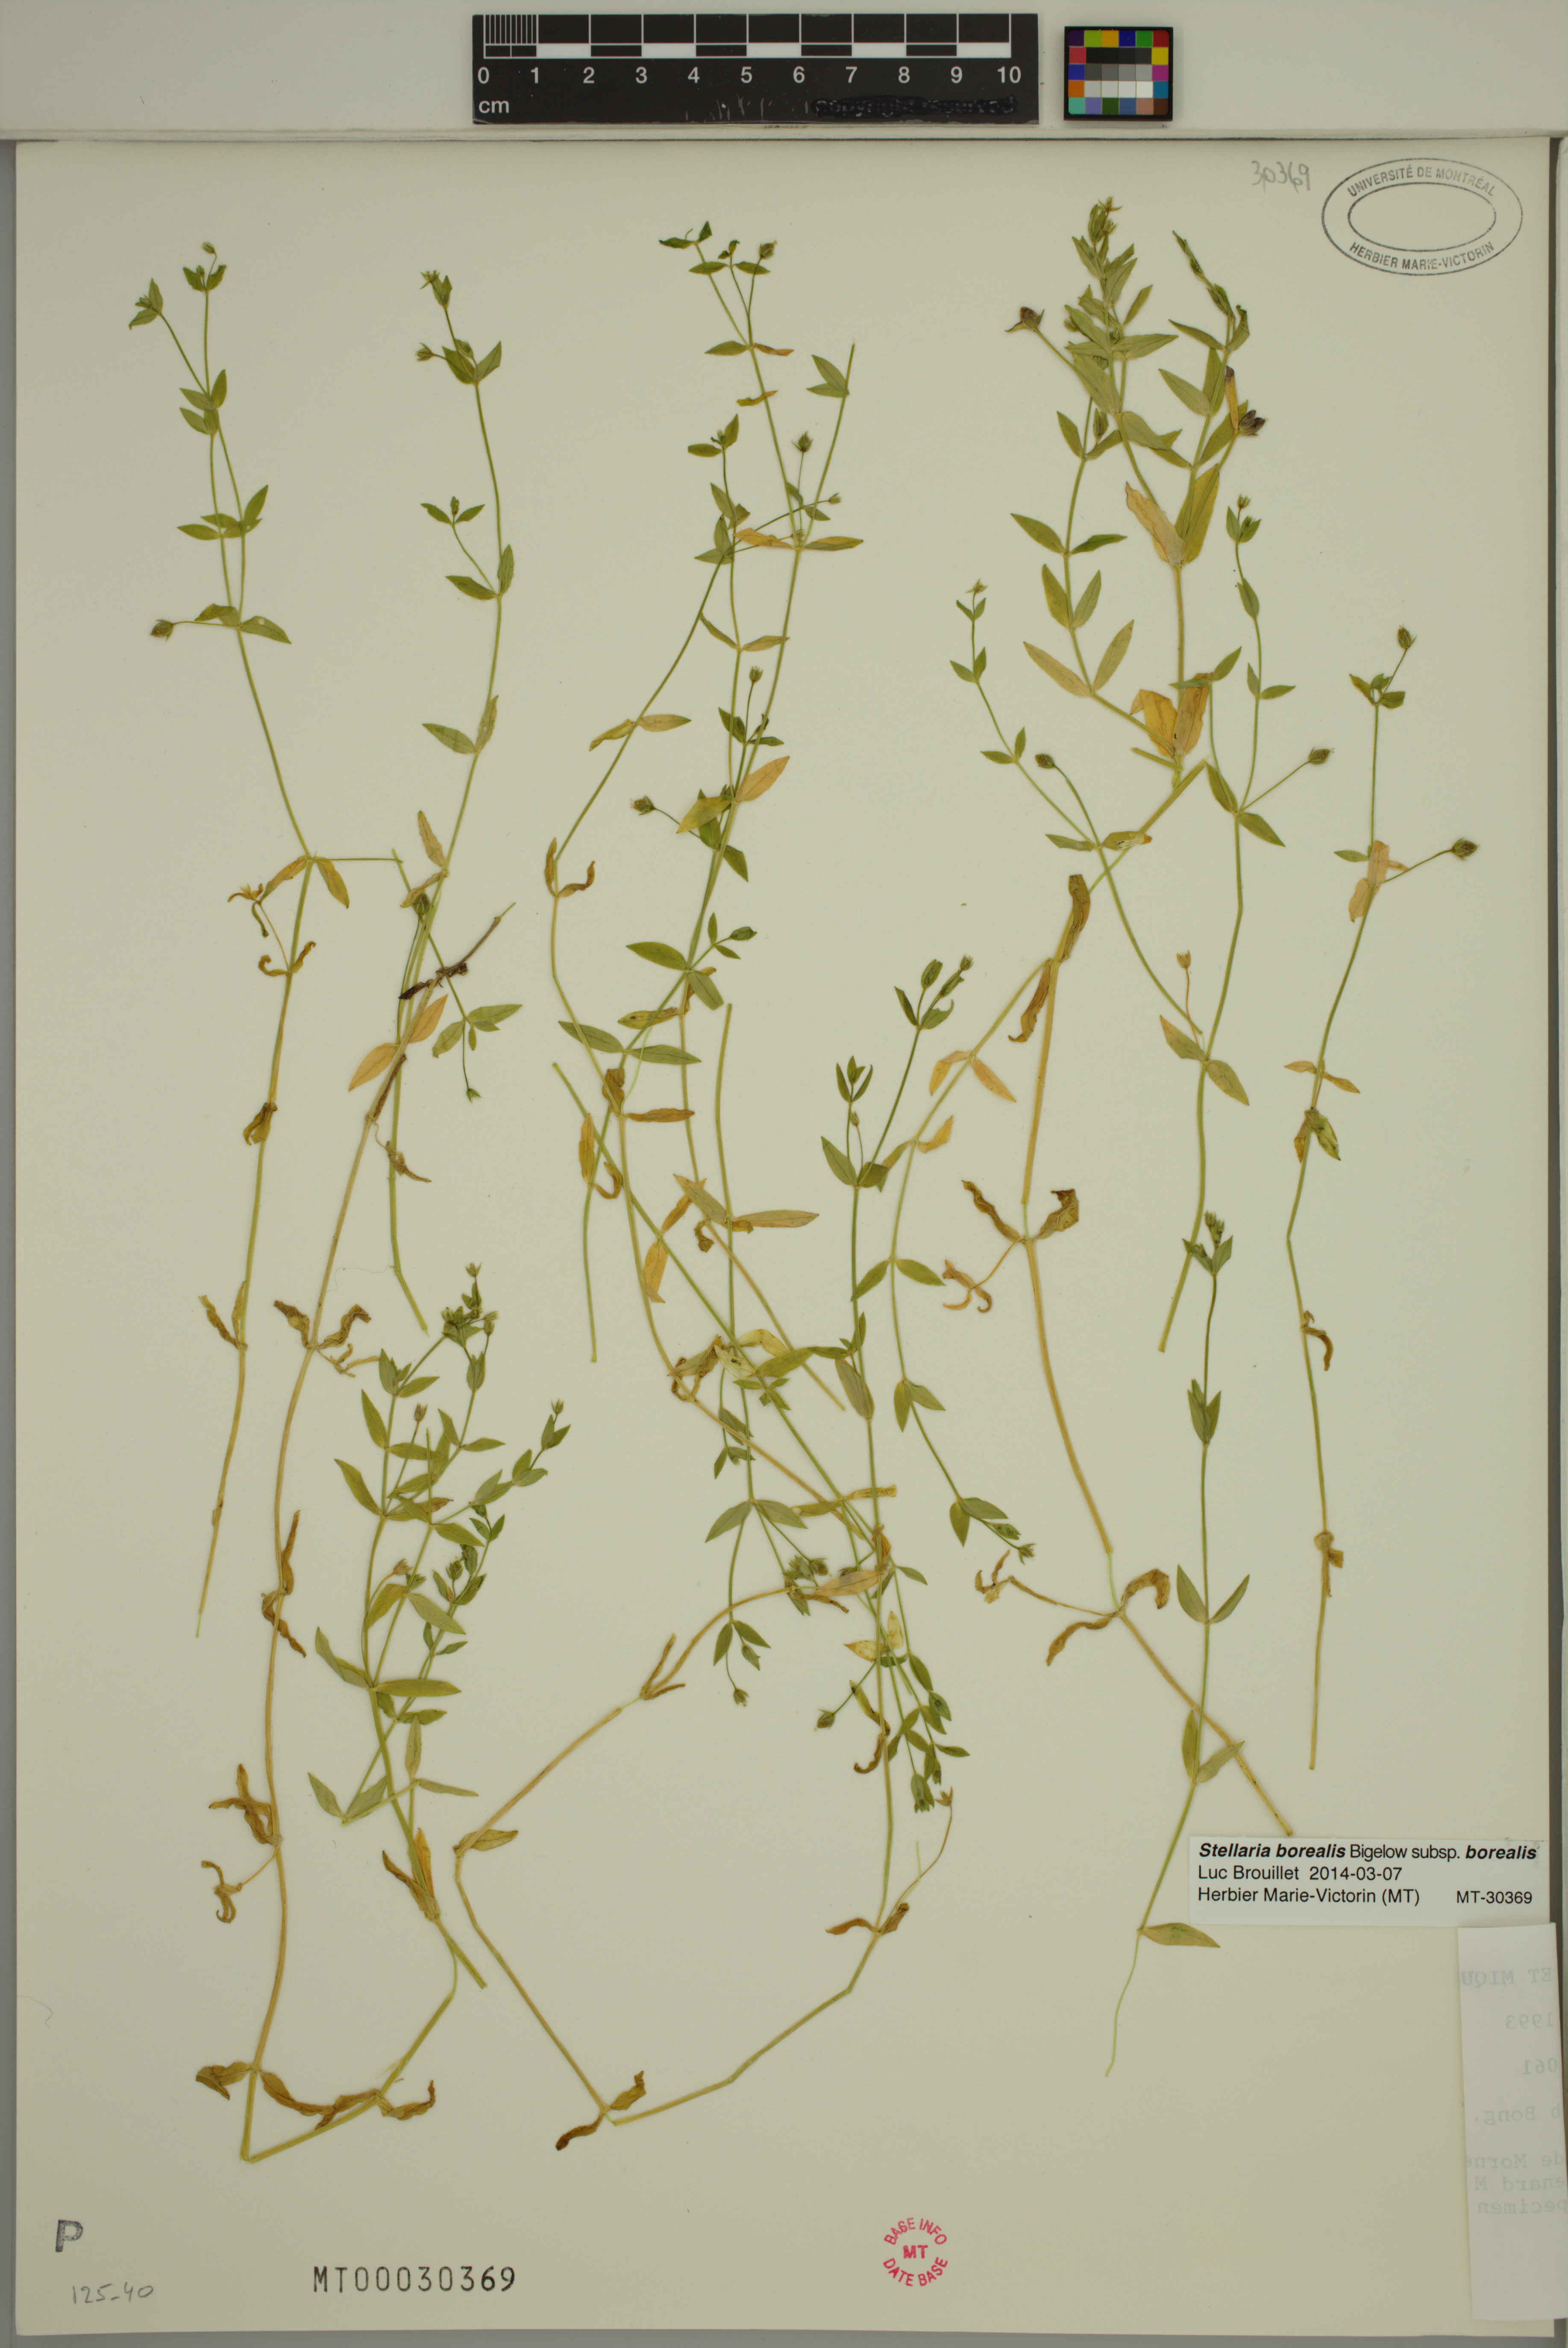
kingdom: Plantae
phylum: Tracheophyta
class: Magnoliopsida
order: Caryophyllales
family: Caryophyllaceae
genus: Stellaria
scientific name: Stellaria borealis
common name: Boreal starwort
